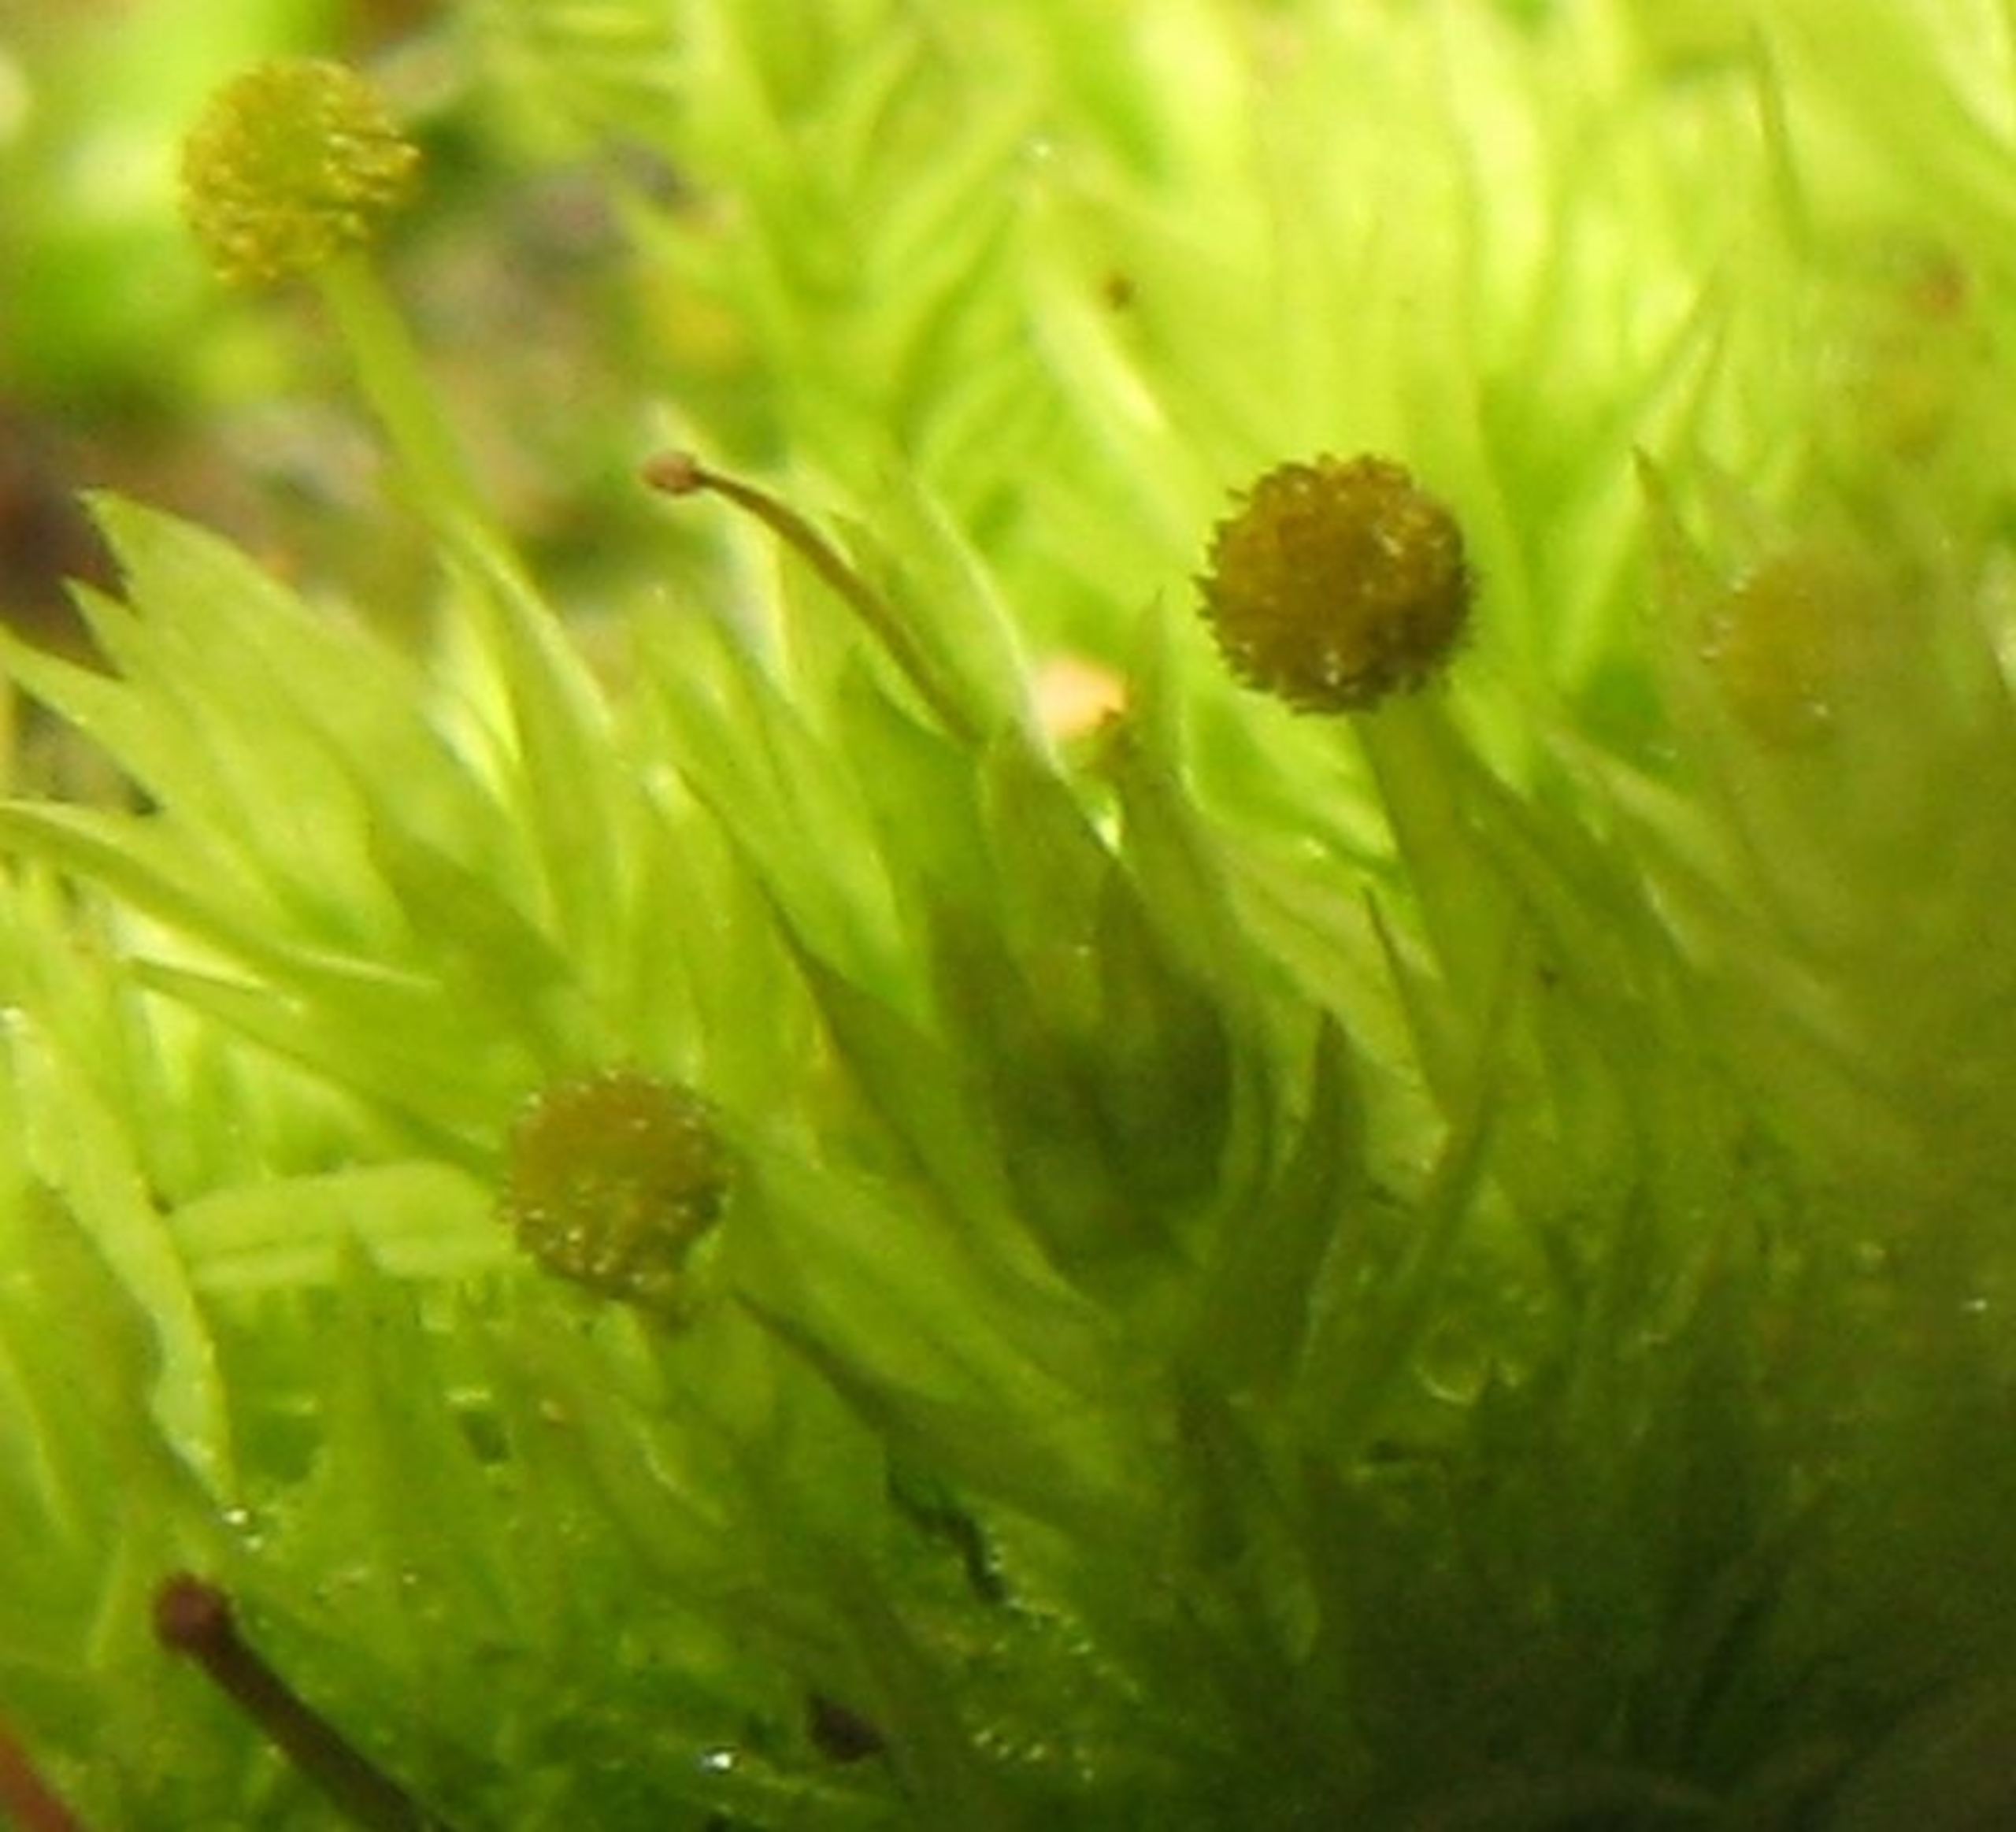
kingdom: Plantae
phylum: Bryophyta
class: Bryopsida
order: Aulacomniales
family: Aulacomniaceae
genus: Aulacomnium
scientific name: Aulacomnium androgynum
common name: Kugle-filtmos
